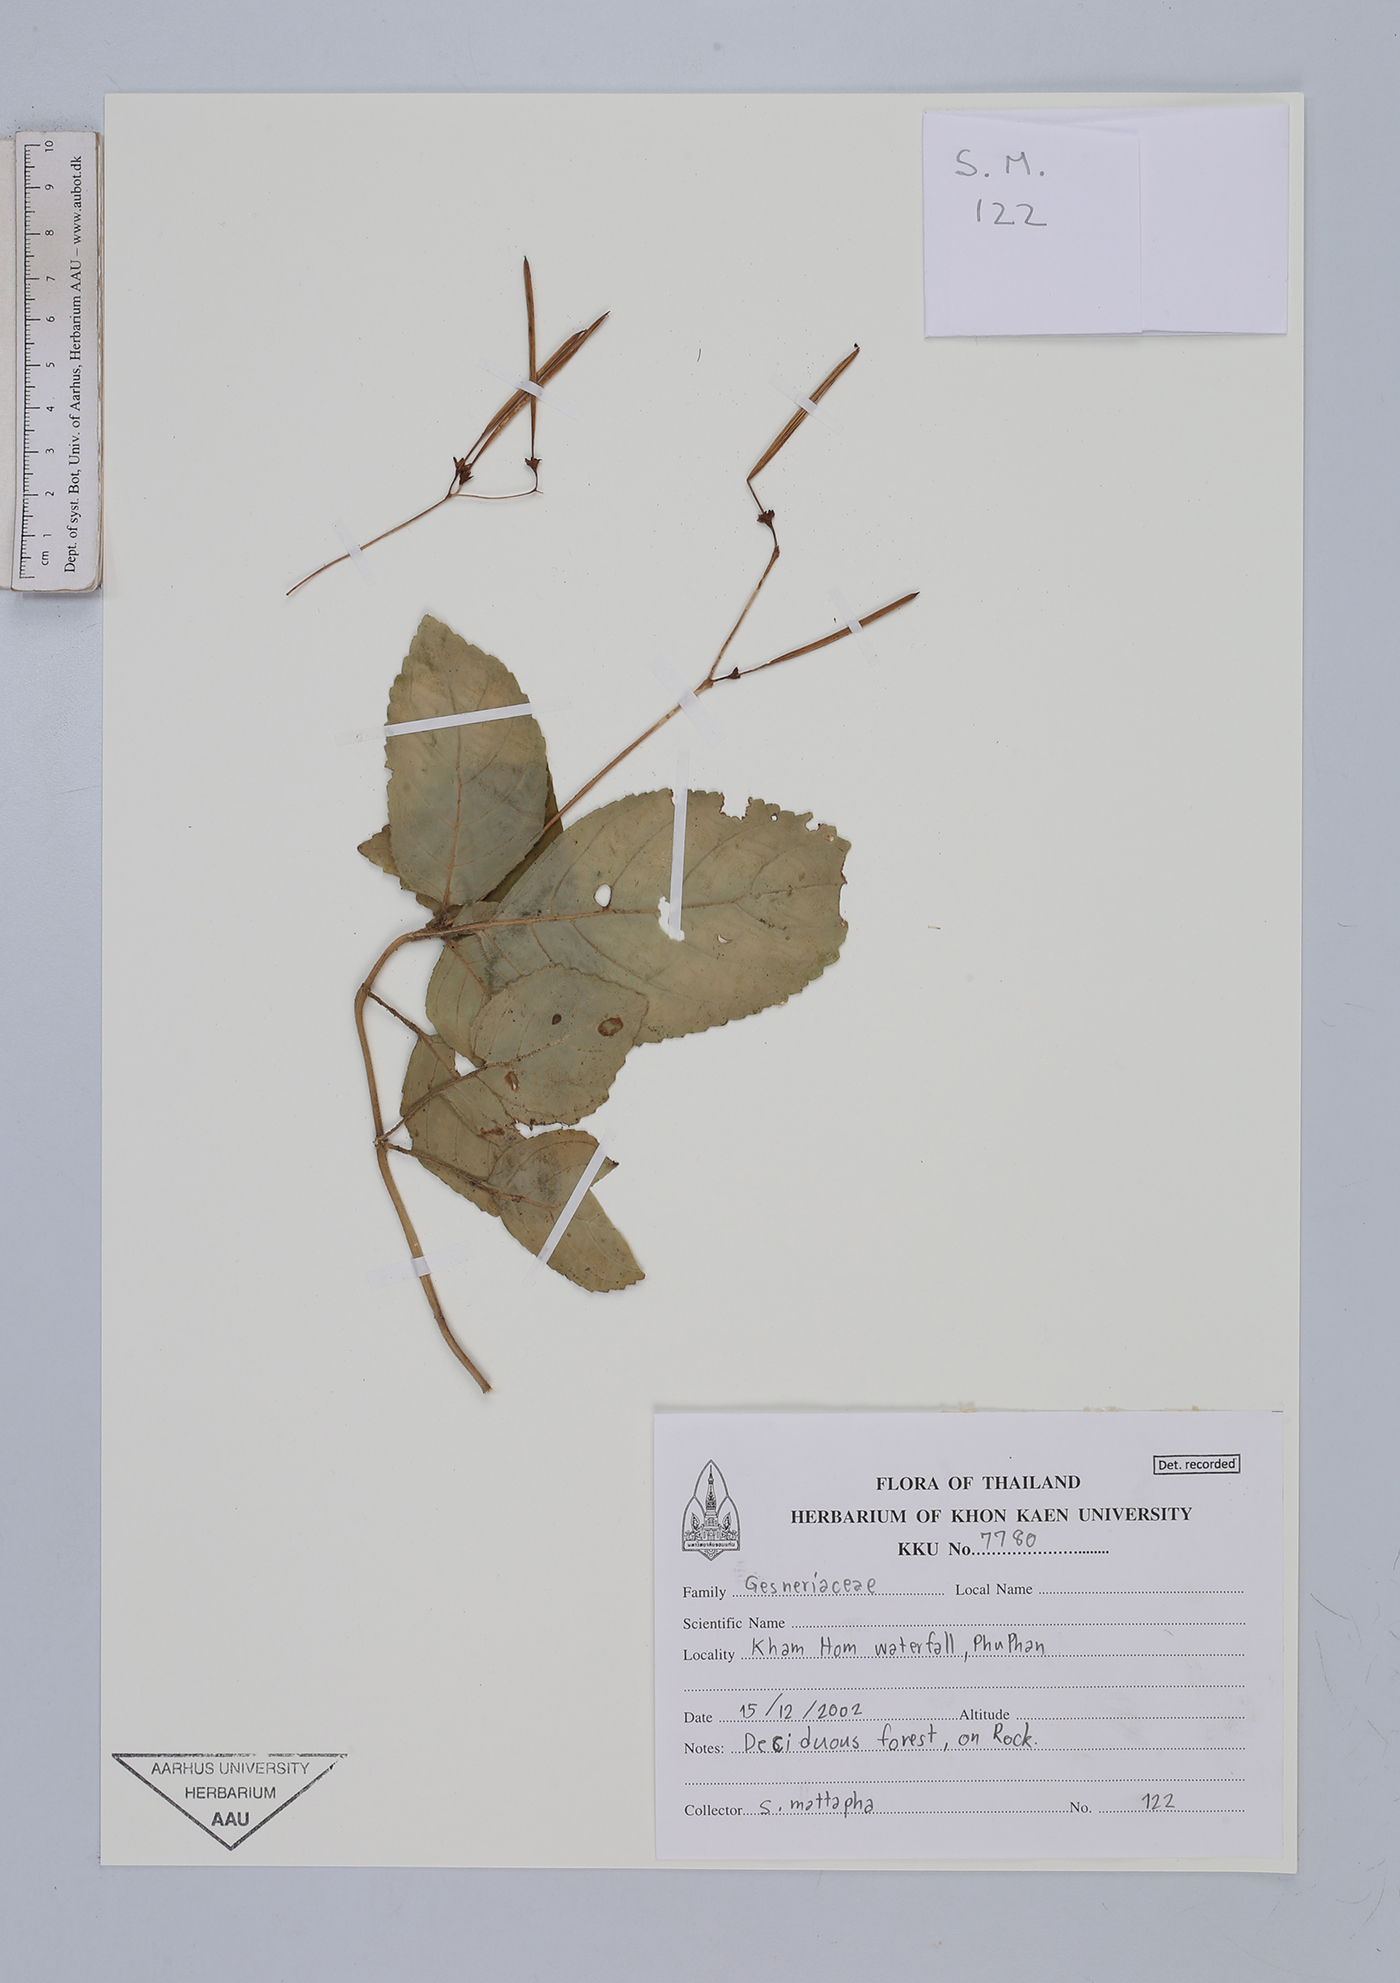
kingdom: Plantae
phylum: Tracheophyta
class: Magnoliopsida
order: Lamiales
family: Gesneriaceae
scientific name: Gesneriaceae
